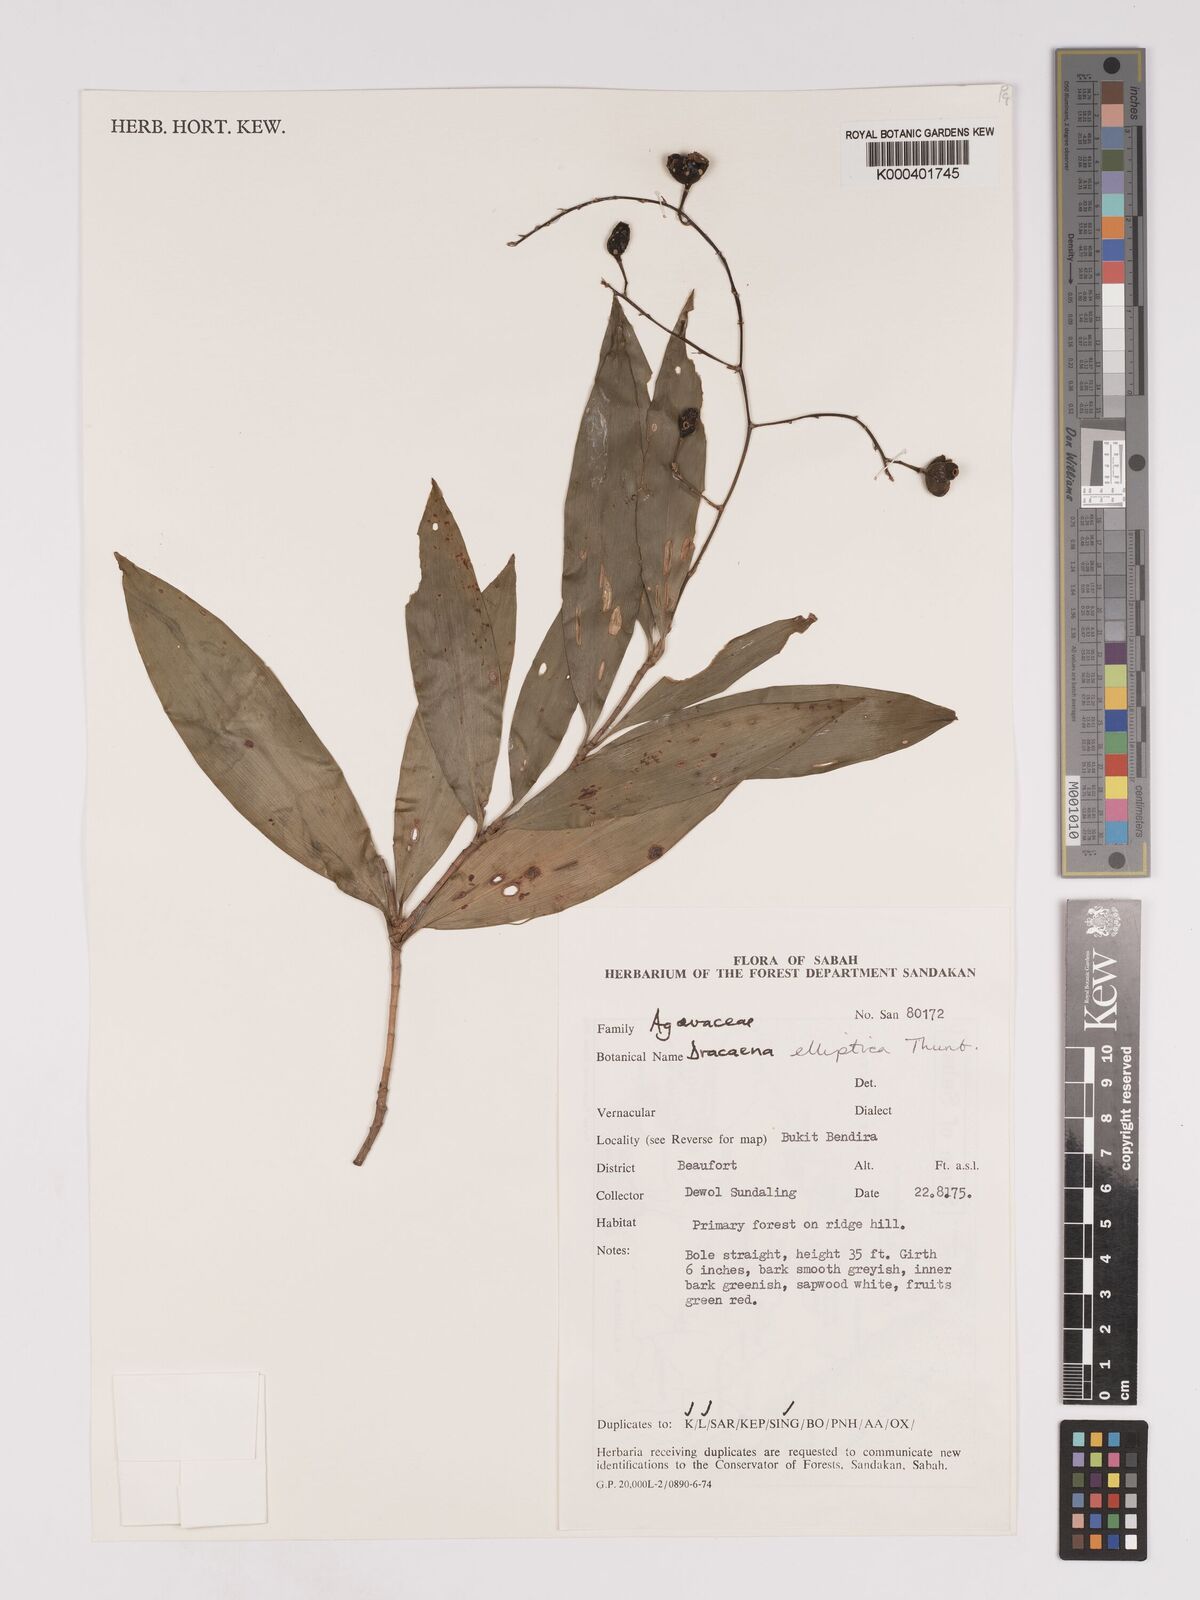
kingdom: Plantae
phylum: Tracheophyta
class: Liliopsida
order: Asparagales
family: Asparagaceae
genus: Dracaena
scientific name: Dracaena elliptica
